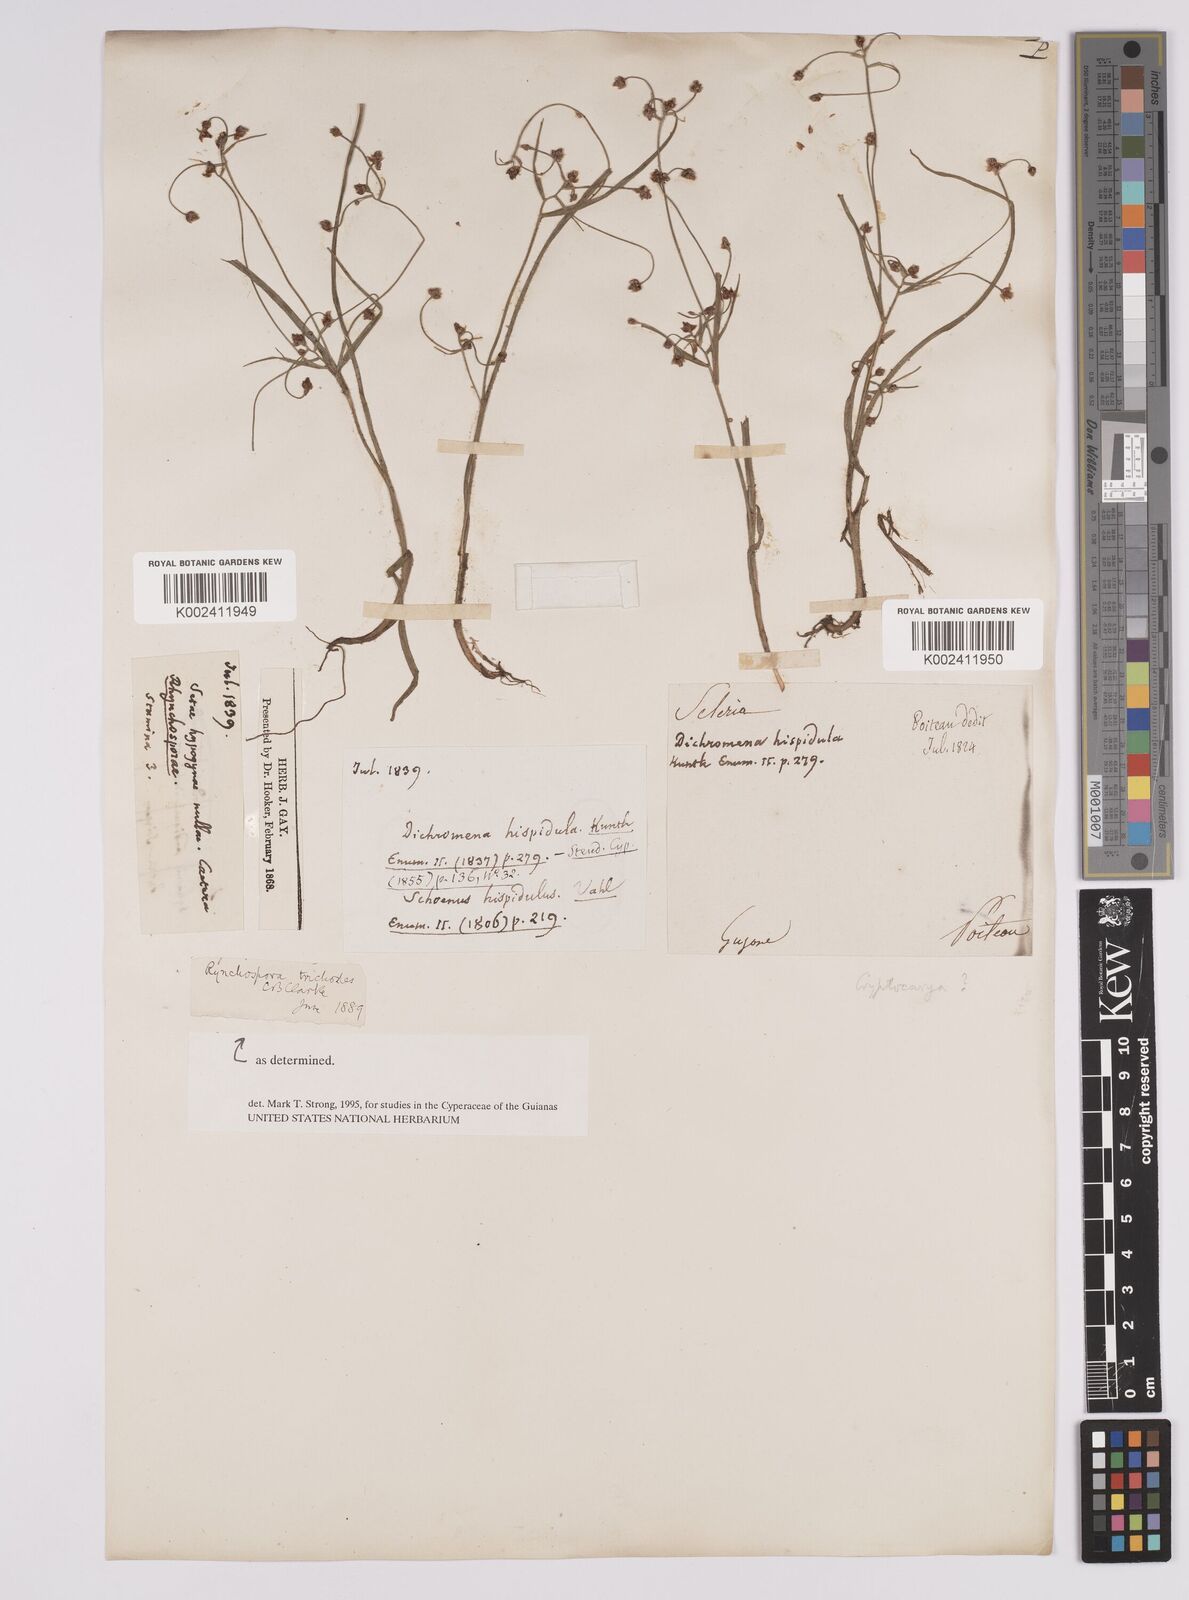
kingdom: Plantae
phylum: Tracheophyta
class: Liliopsida
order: Poales
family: Cyperaceae
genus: Rhynchospora
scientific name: Rhynchospora divaricata
